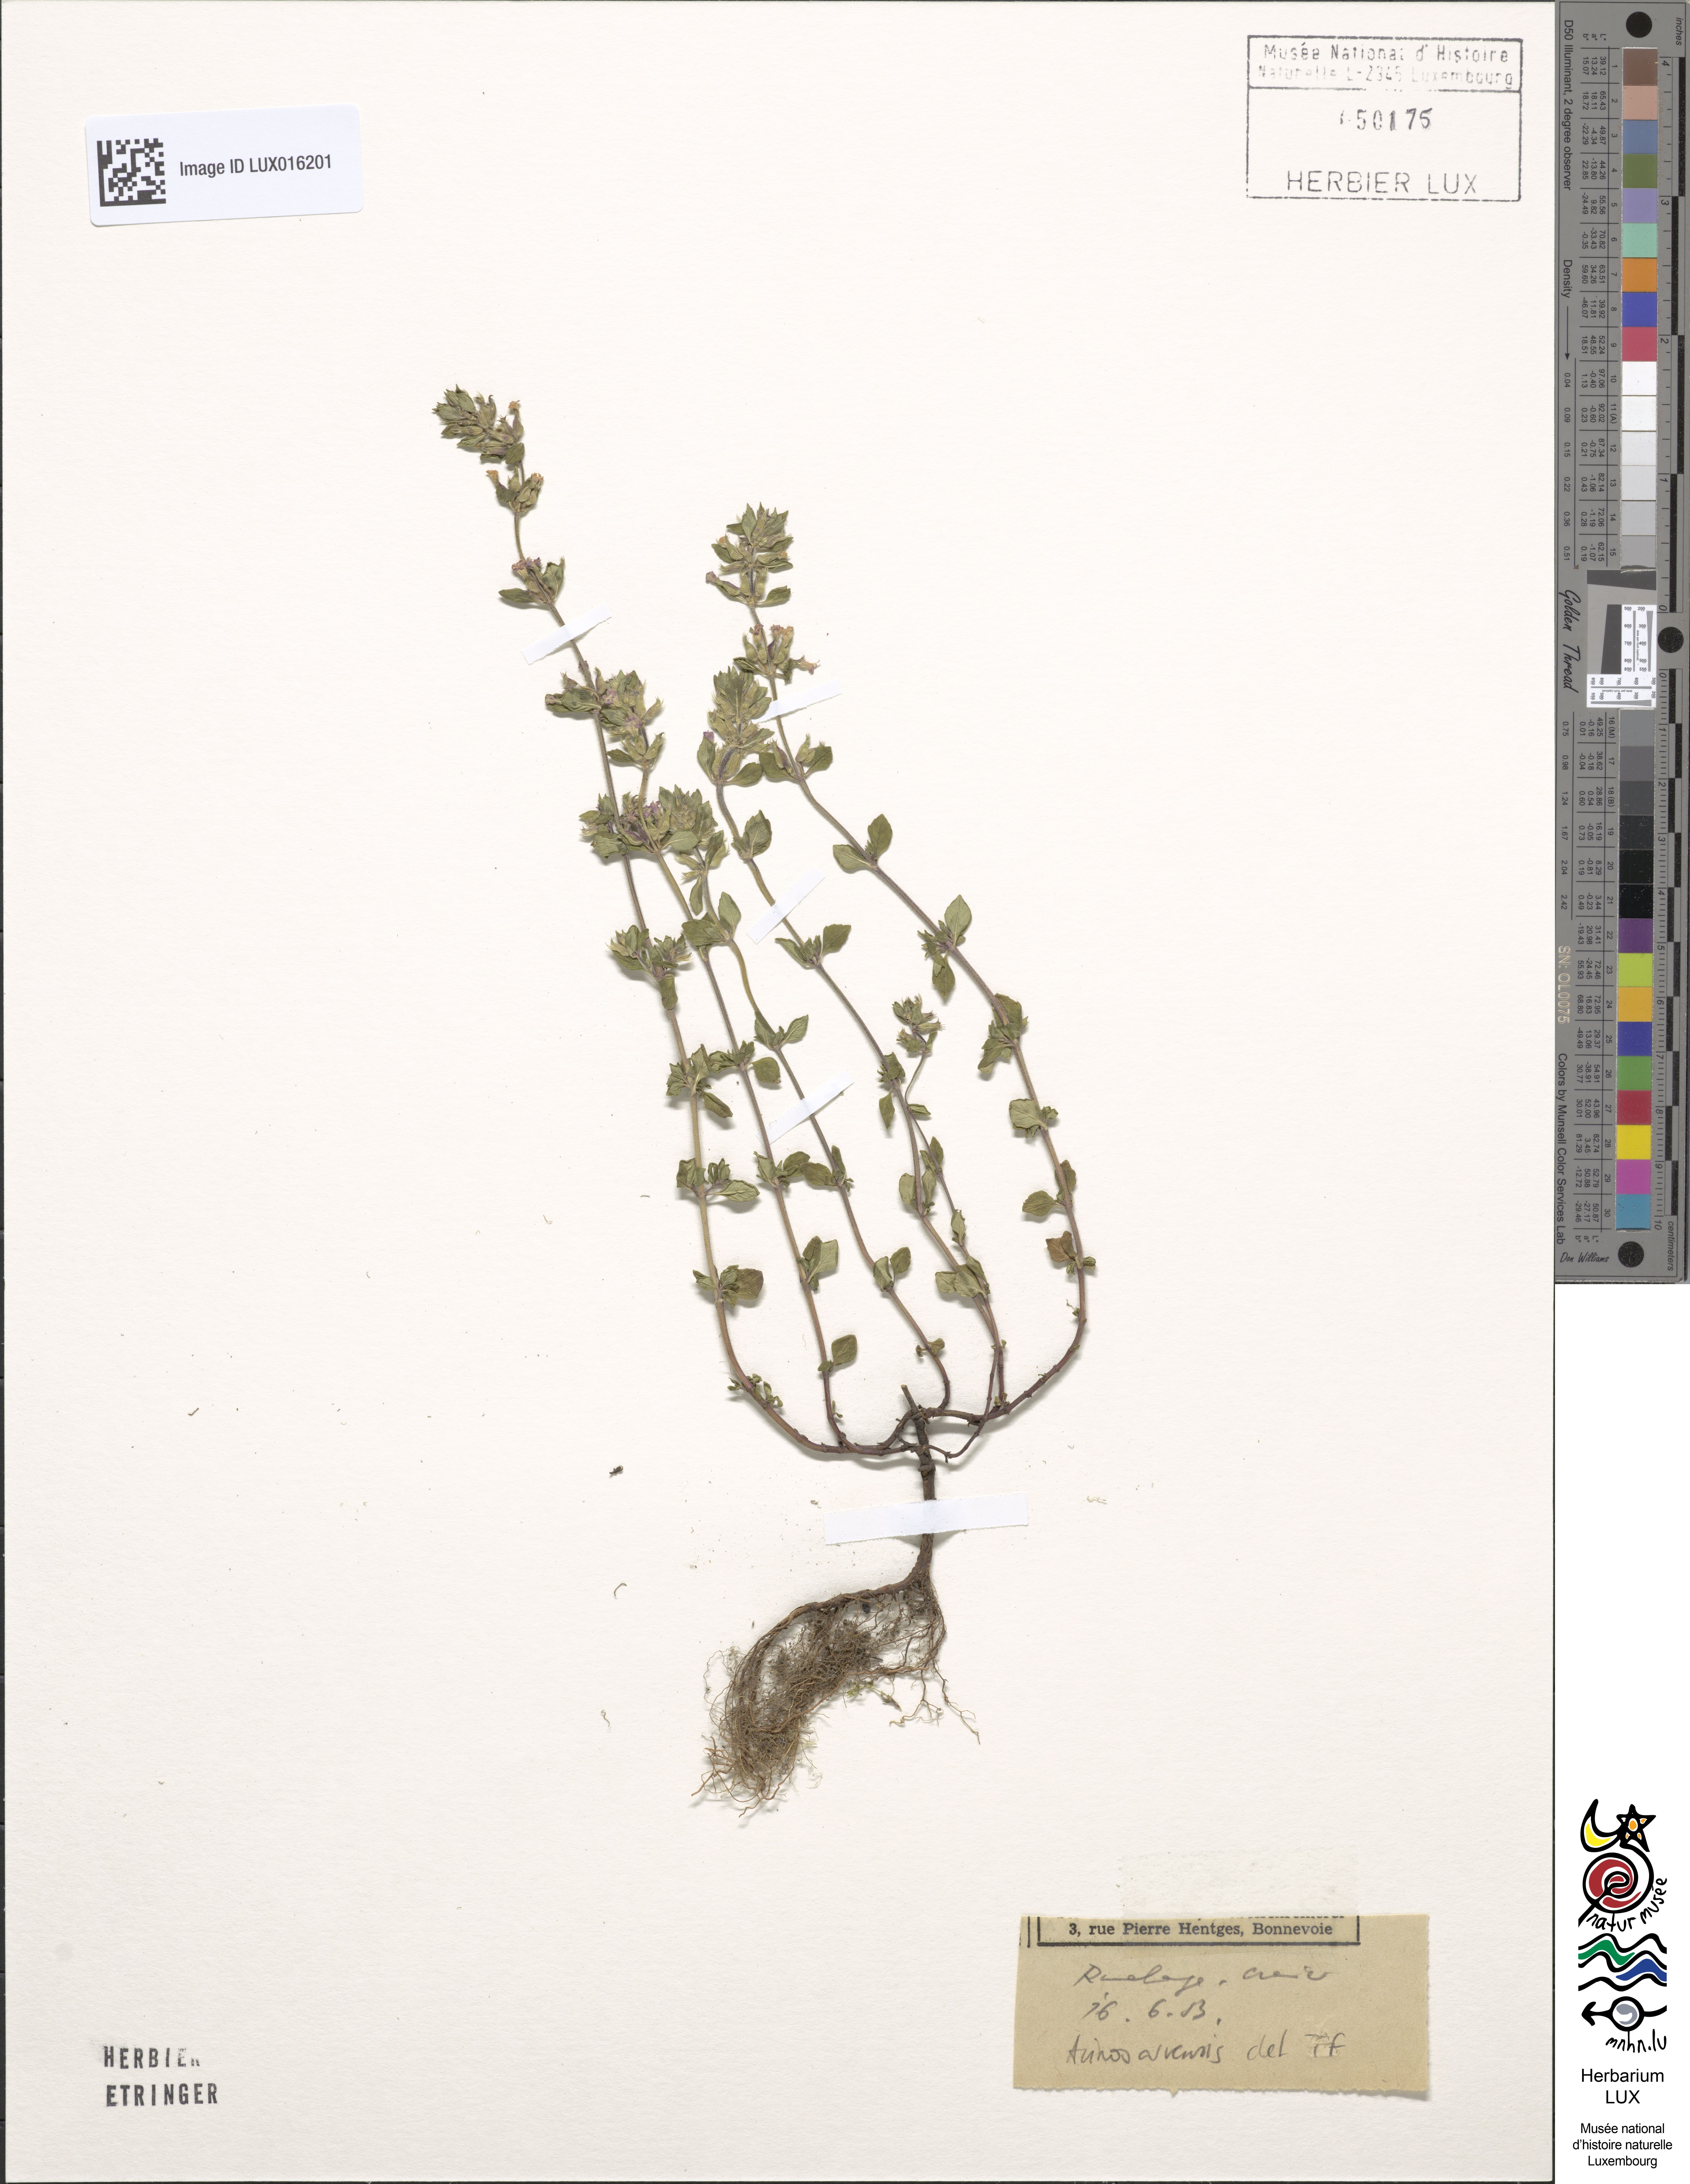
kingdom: Plantae
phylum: Tracheophyta
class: Magnoliopsida
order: Lamiales
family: Lamiaceae
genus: Clinopodium
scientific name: Clinopodium acinos
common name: Basil thyme
